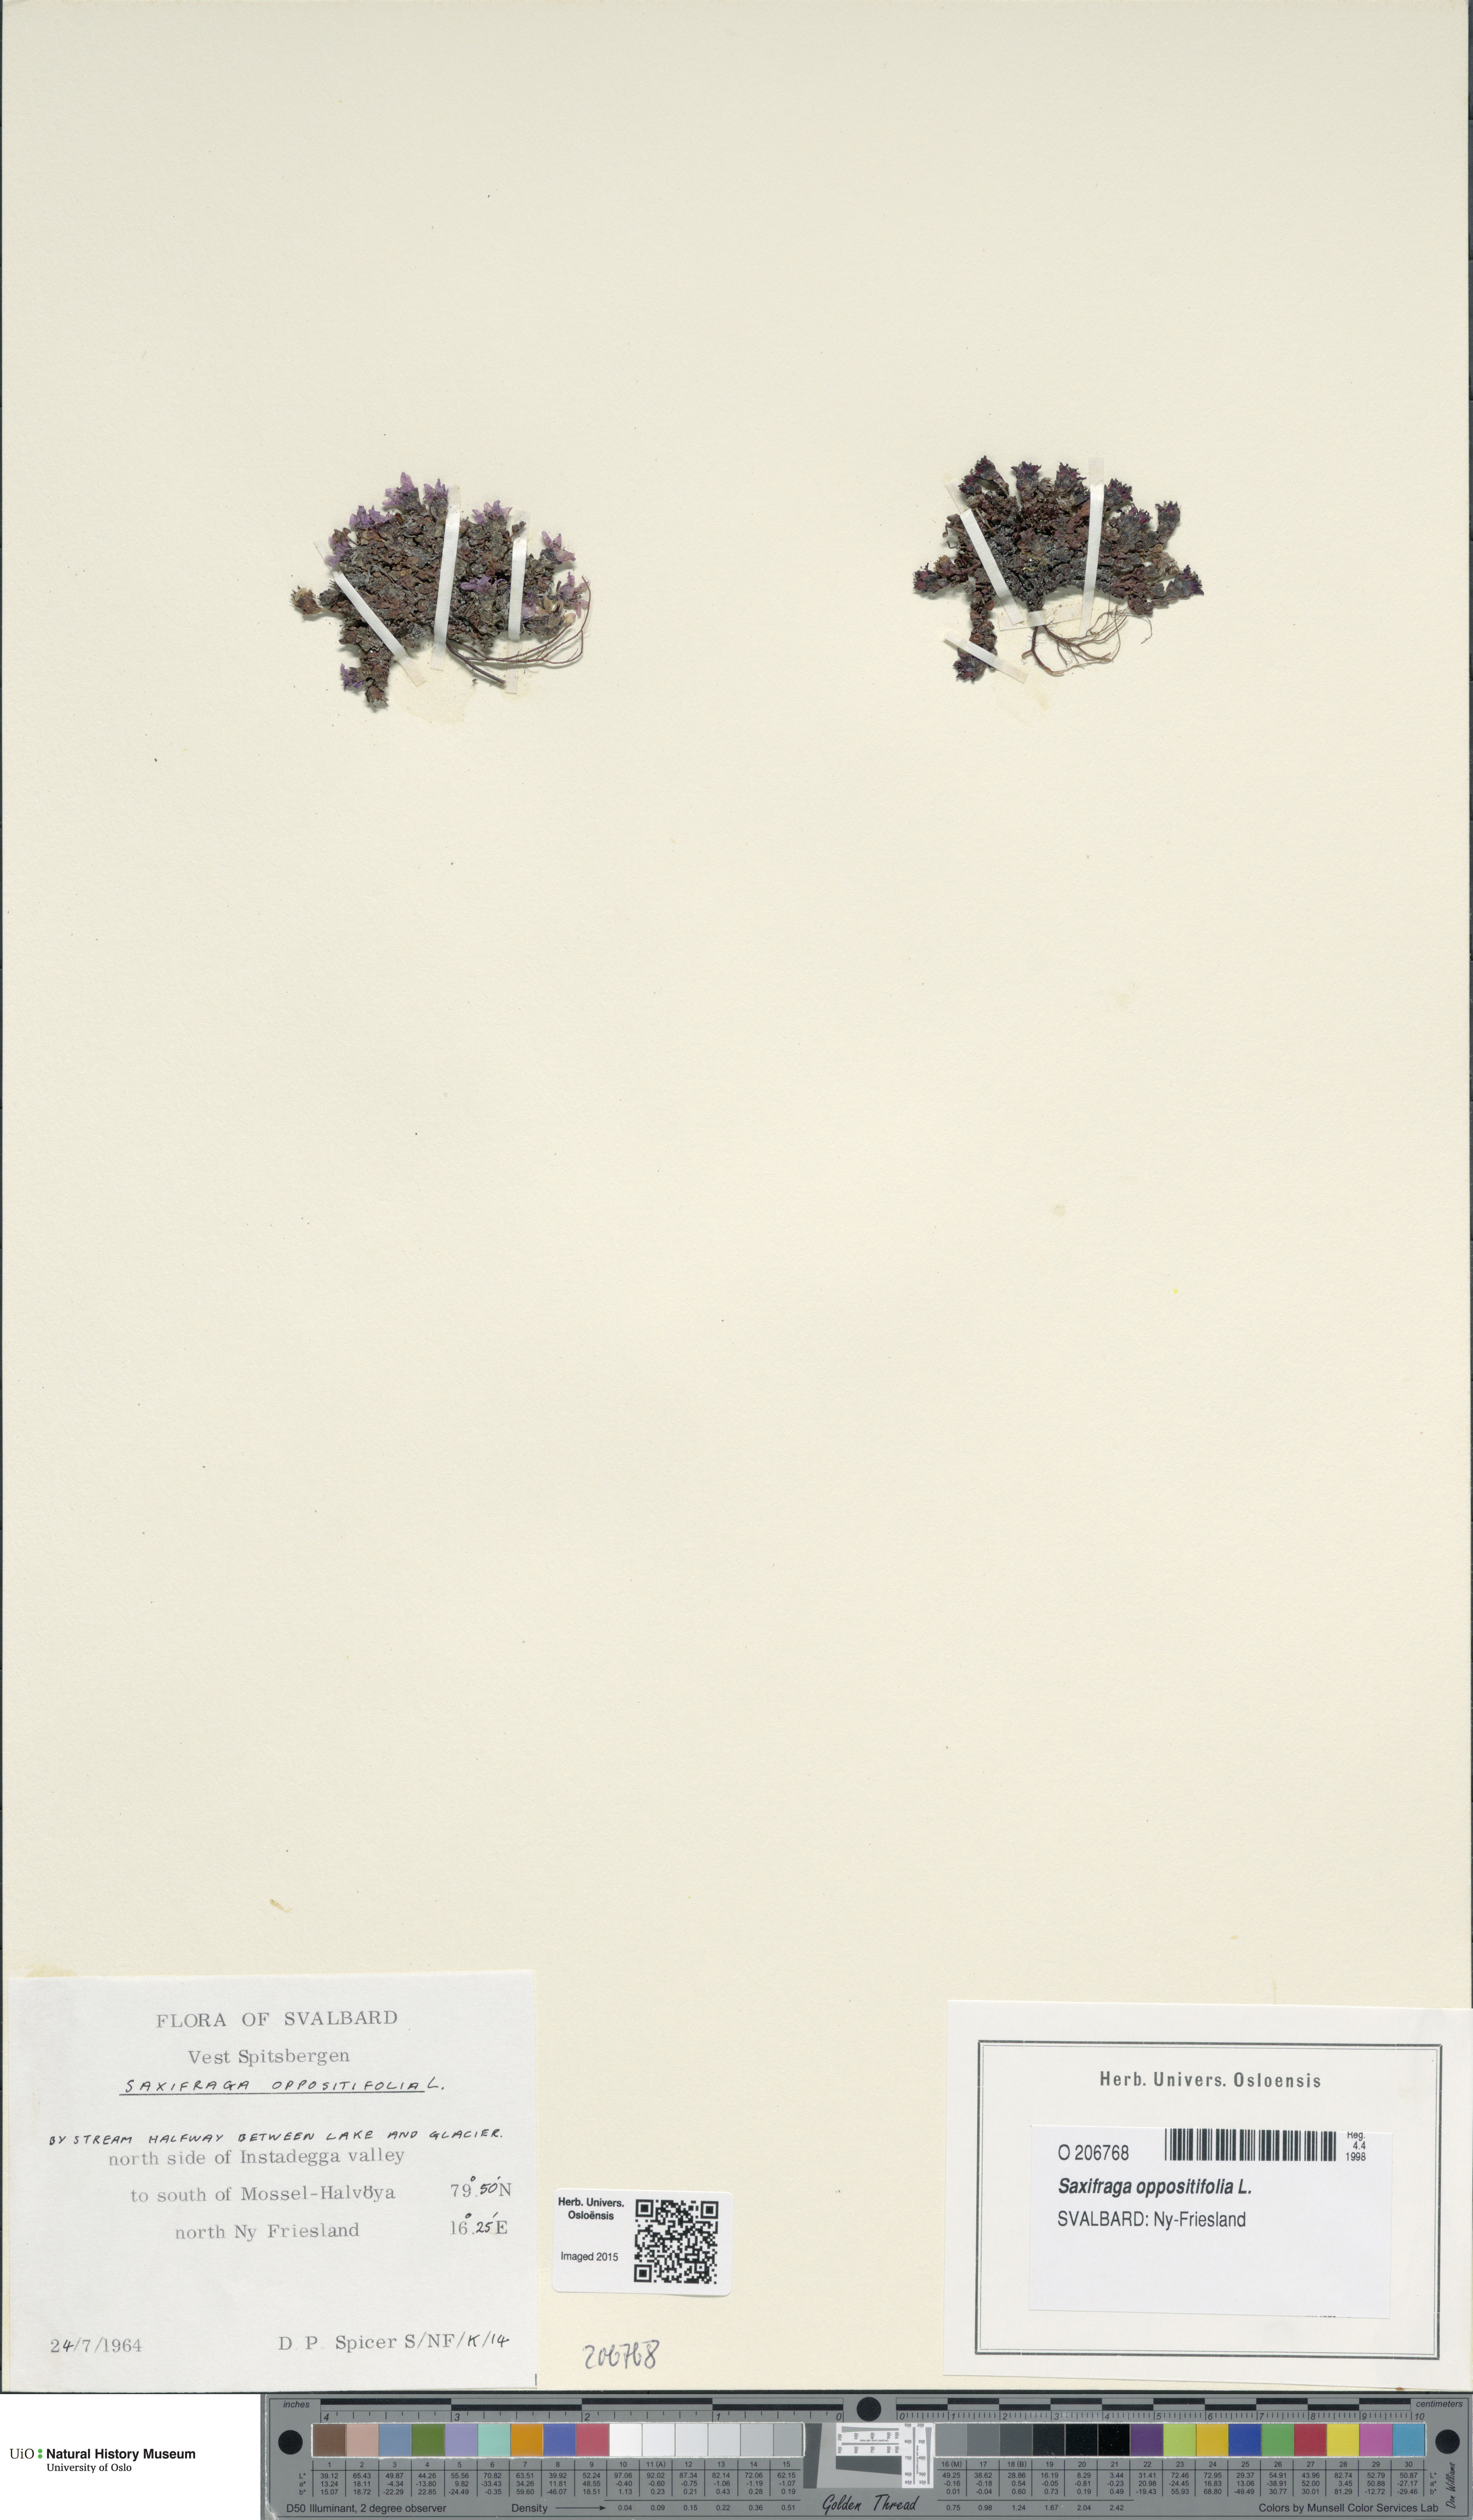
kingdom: Plantae
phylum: Tracheophyta
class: Magnoliopsida
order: Saxifragales
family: Saxifragaceae
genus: Saxifraga
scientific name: Saxifraga oppositifolia
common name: Purple saxifrage
